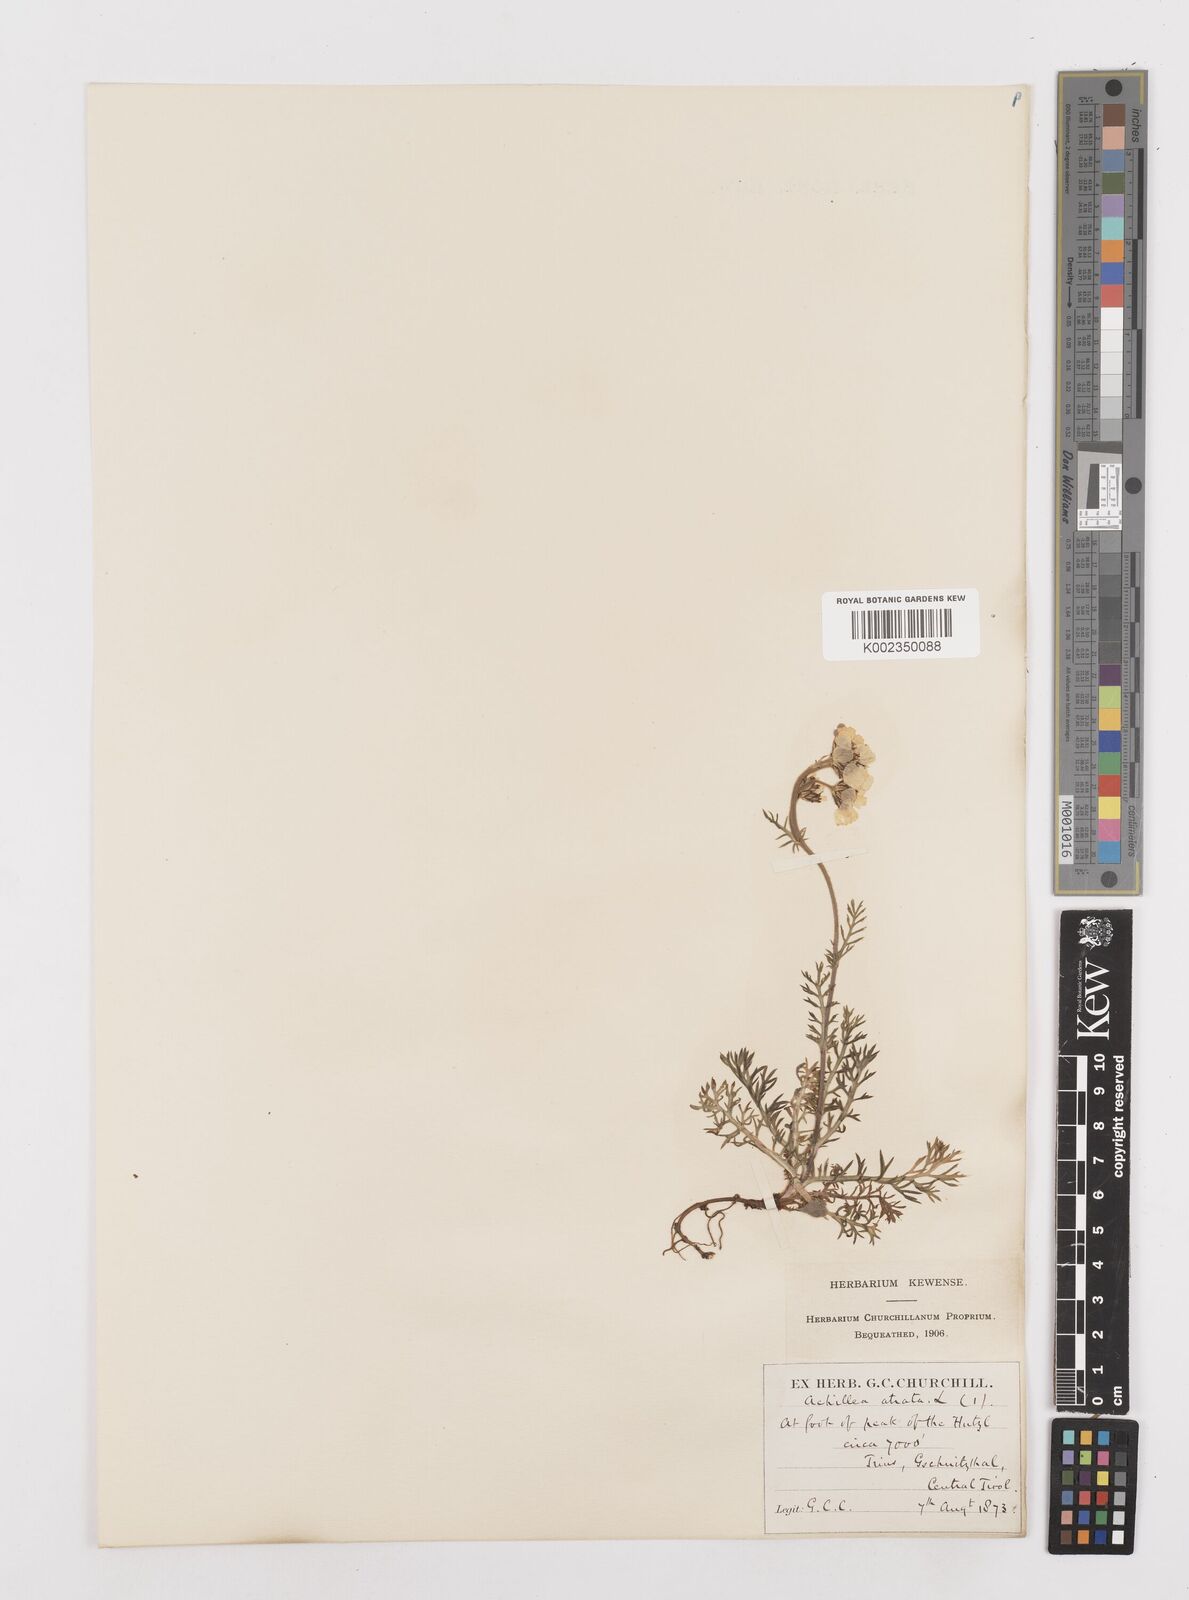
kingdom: Plantae
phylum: Tracheophyta
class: Magnoliopsida
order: Asterales
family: Asteraceae
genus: Achillea
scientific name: Achillea atrata
